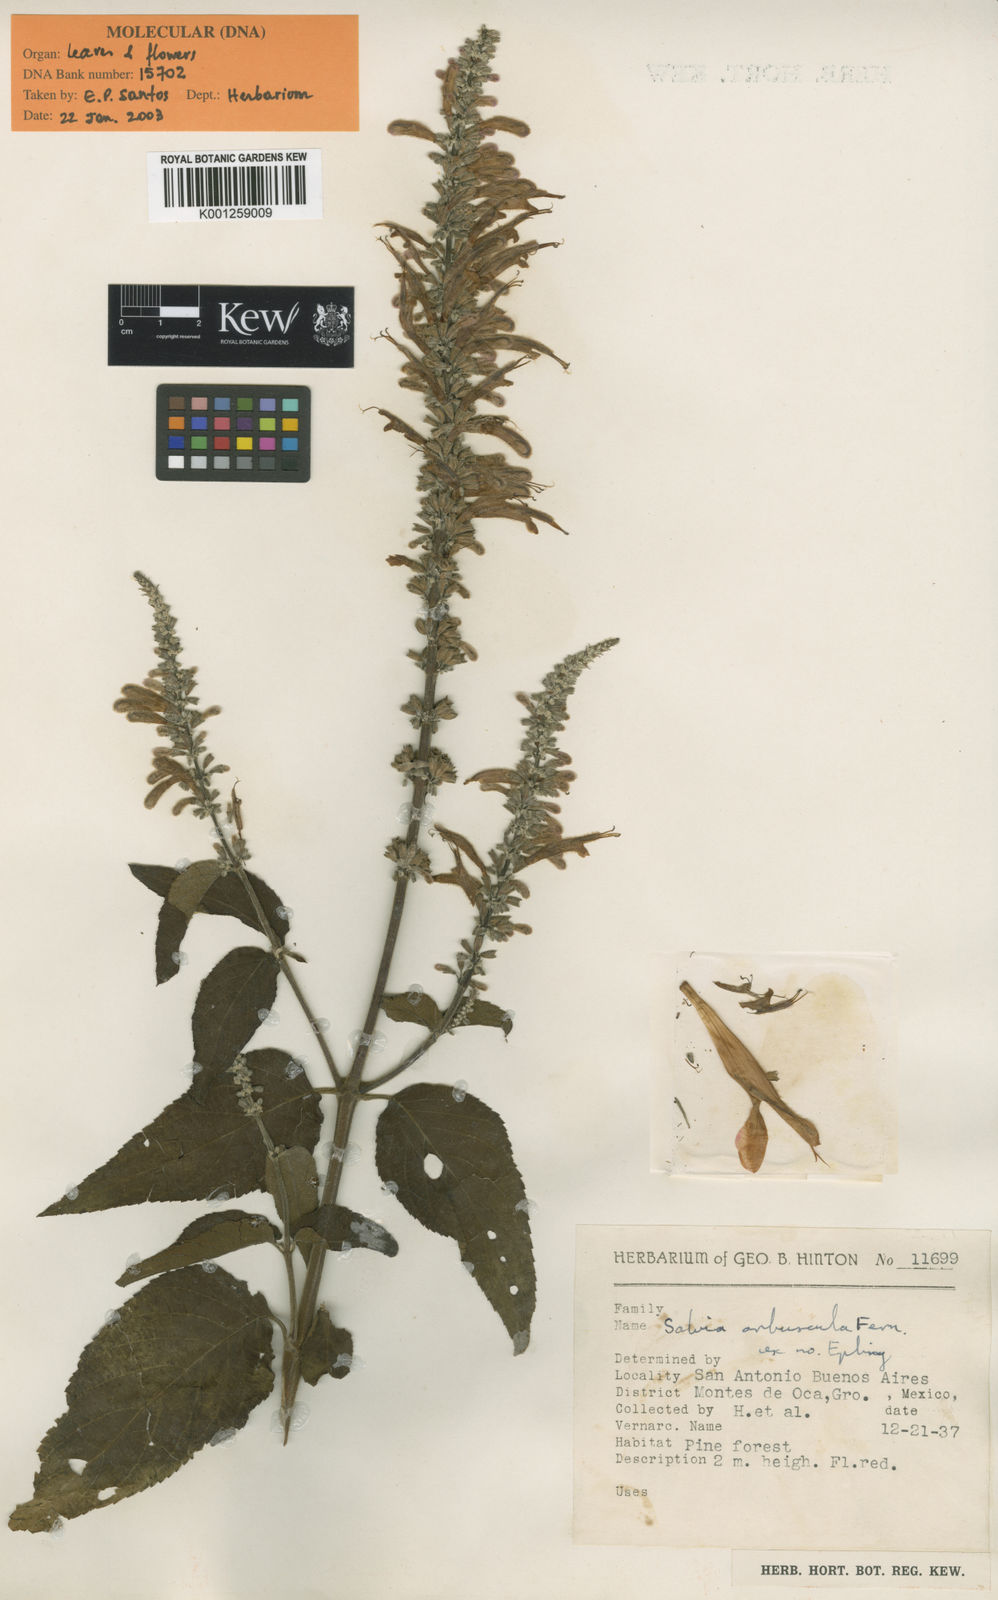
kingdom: Plantae
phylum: Tracheophyta
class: Magnoliopsida
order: Lamiales
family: Lamiaceae
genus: Salvia
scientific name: Salvia iodantha
